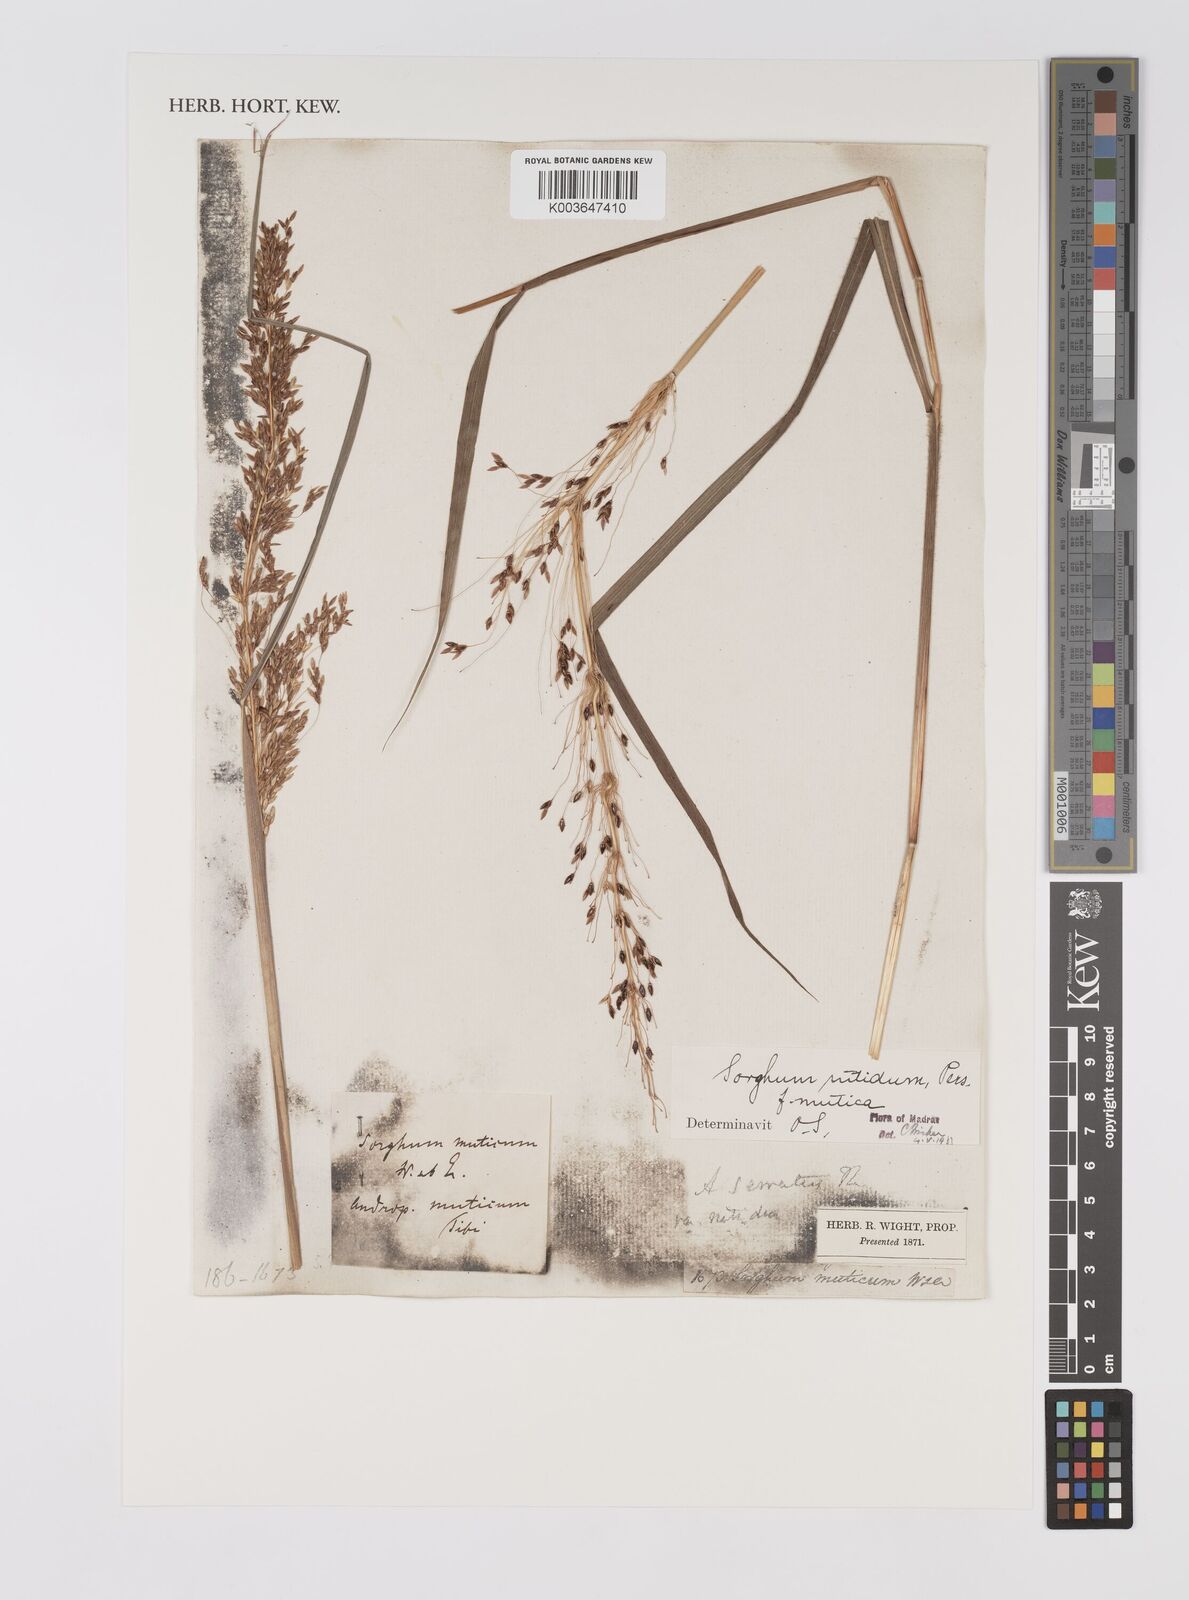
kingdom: Plantae
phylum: Tracheophyta
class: Liliopsida
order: Poales
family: Poaceae
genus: Sorghum
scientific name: Sorghum nitidum
